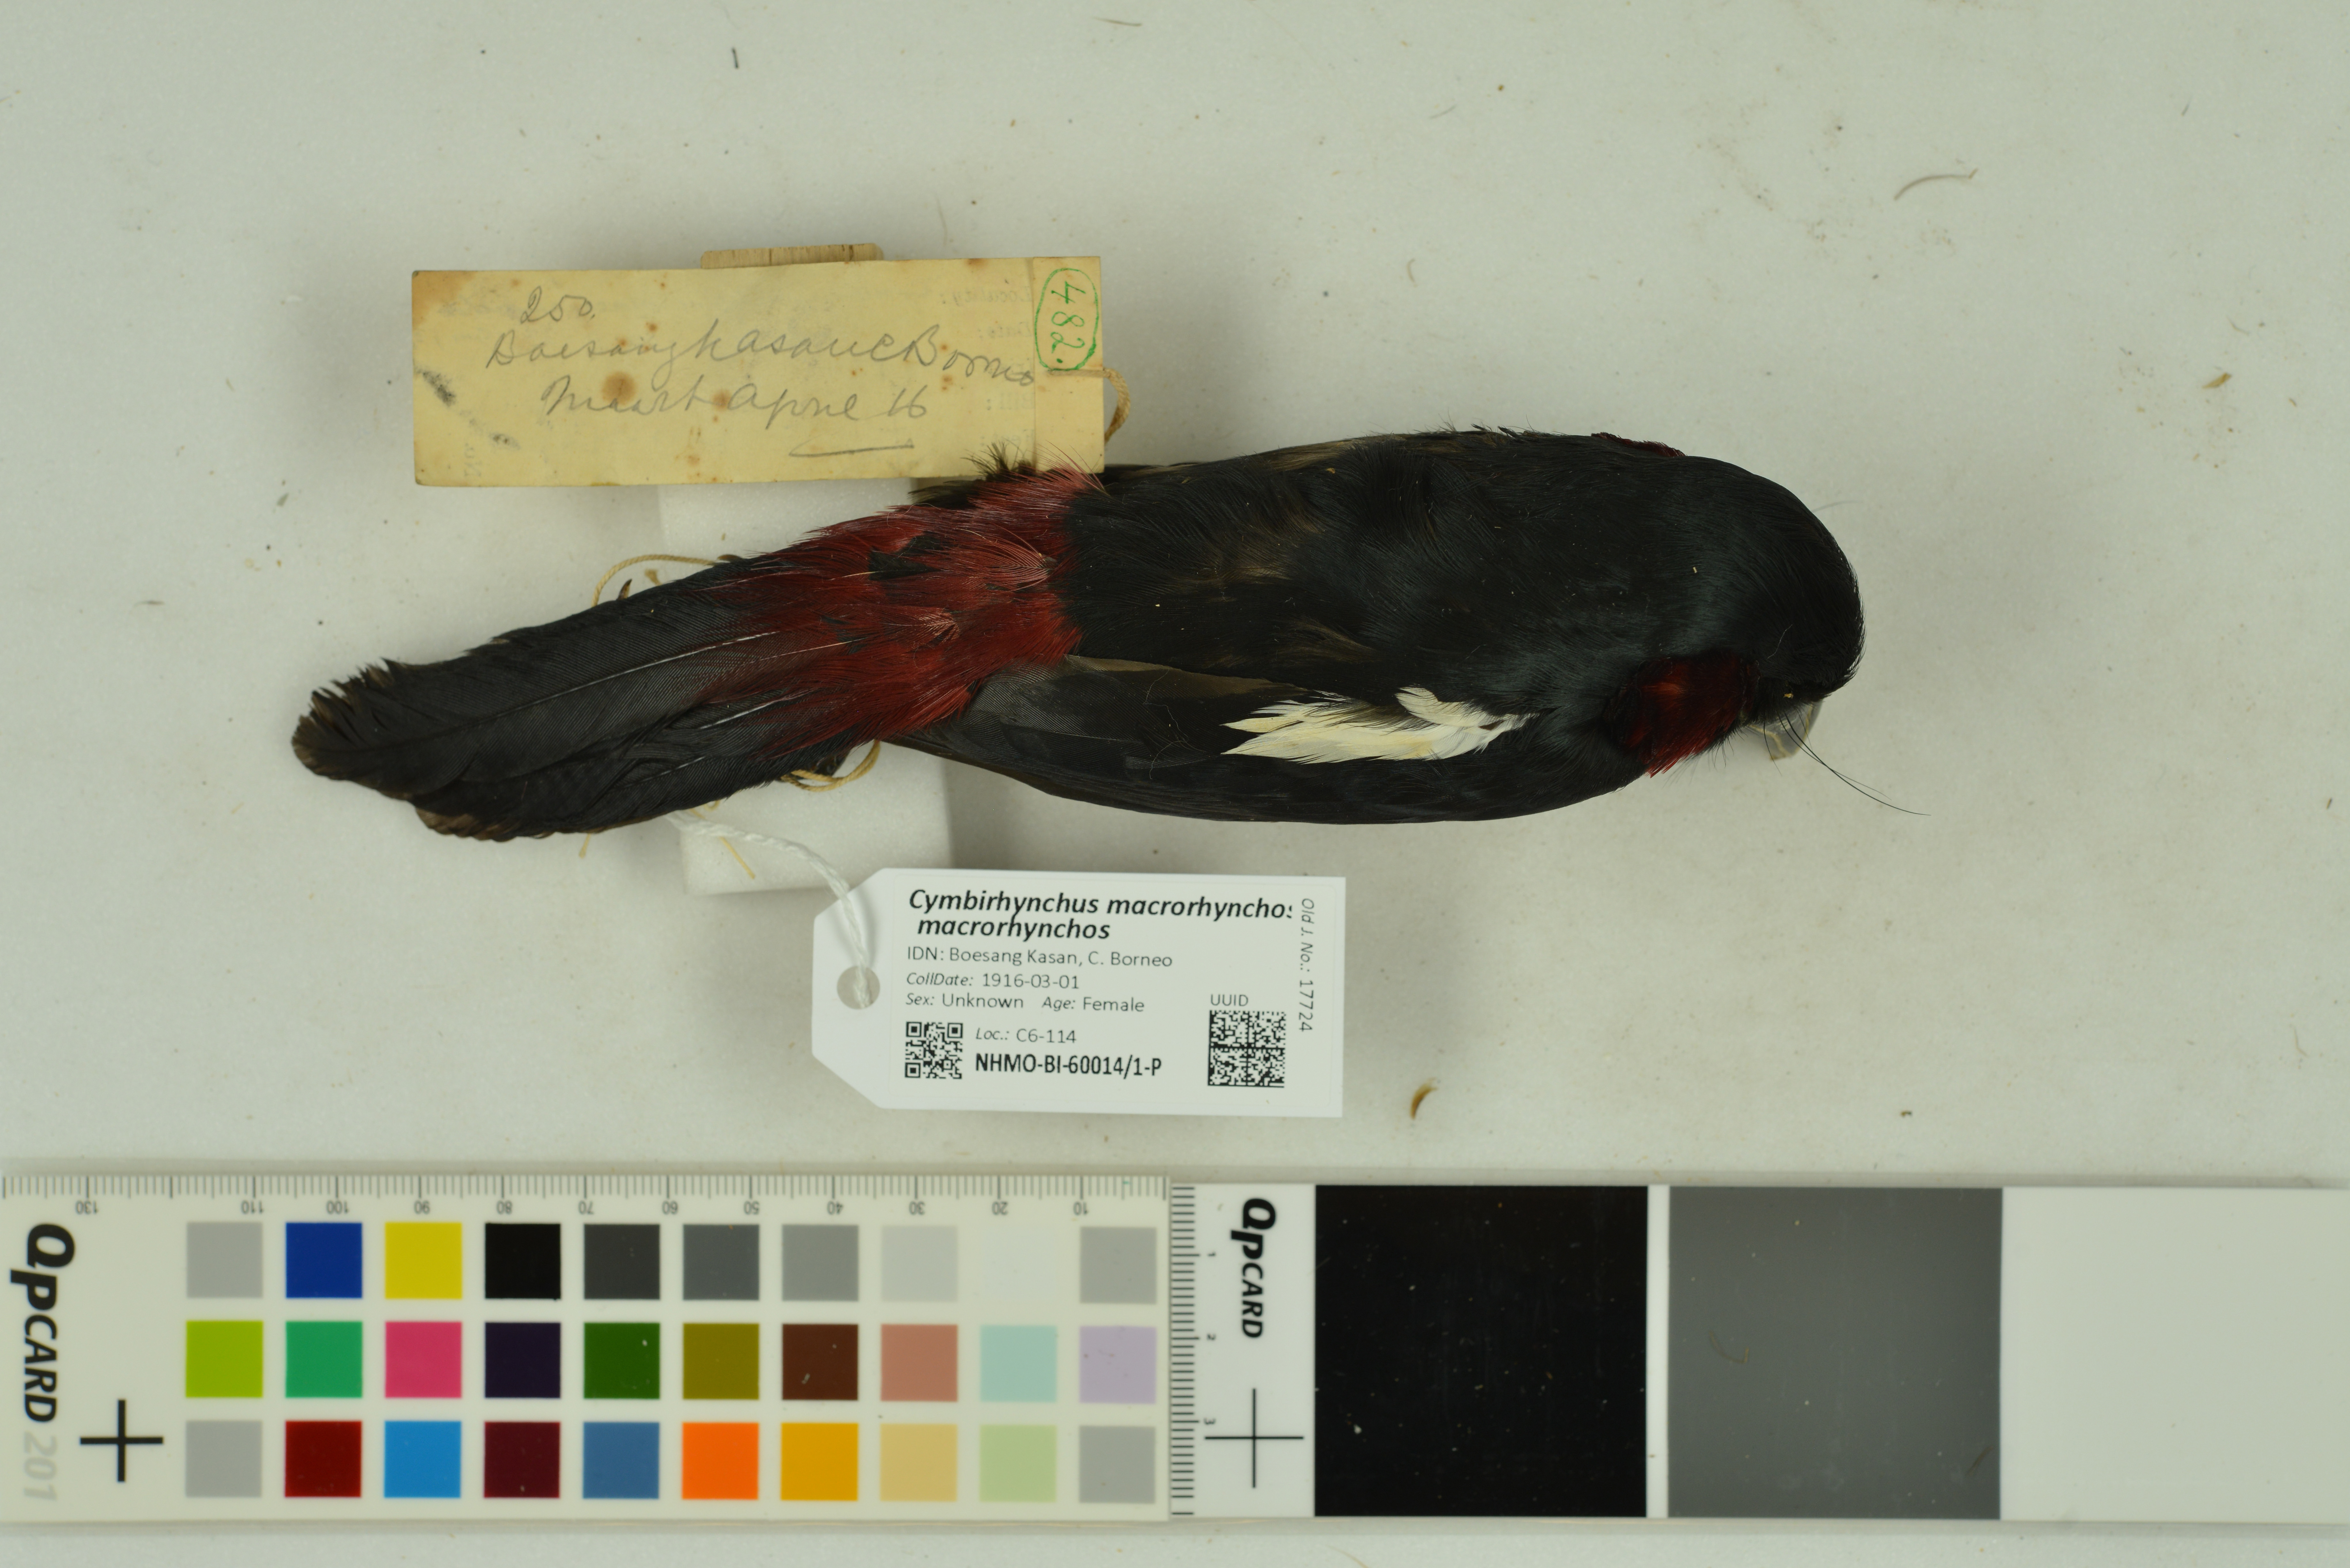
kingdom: Animalia
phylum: Chordata
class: Aves
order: Passeriformes
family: Eurylaimidae
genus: Cymbirhynchus
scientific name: Cymbirhynchus macrorhynchos
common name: Black-and-red broadbill
